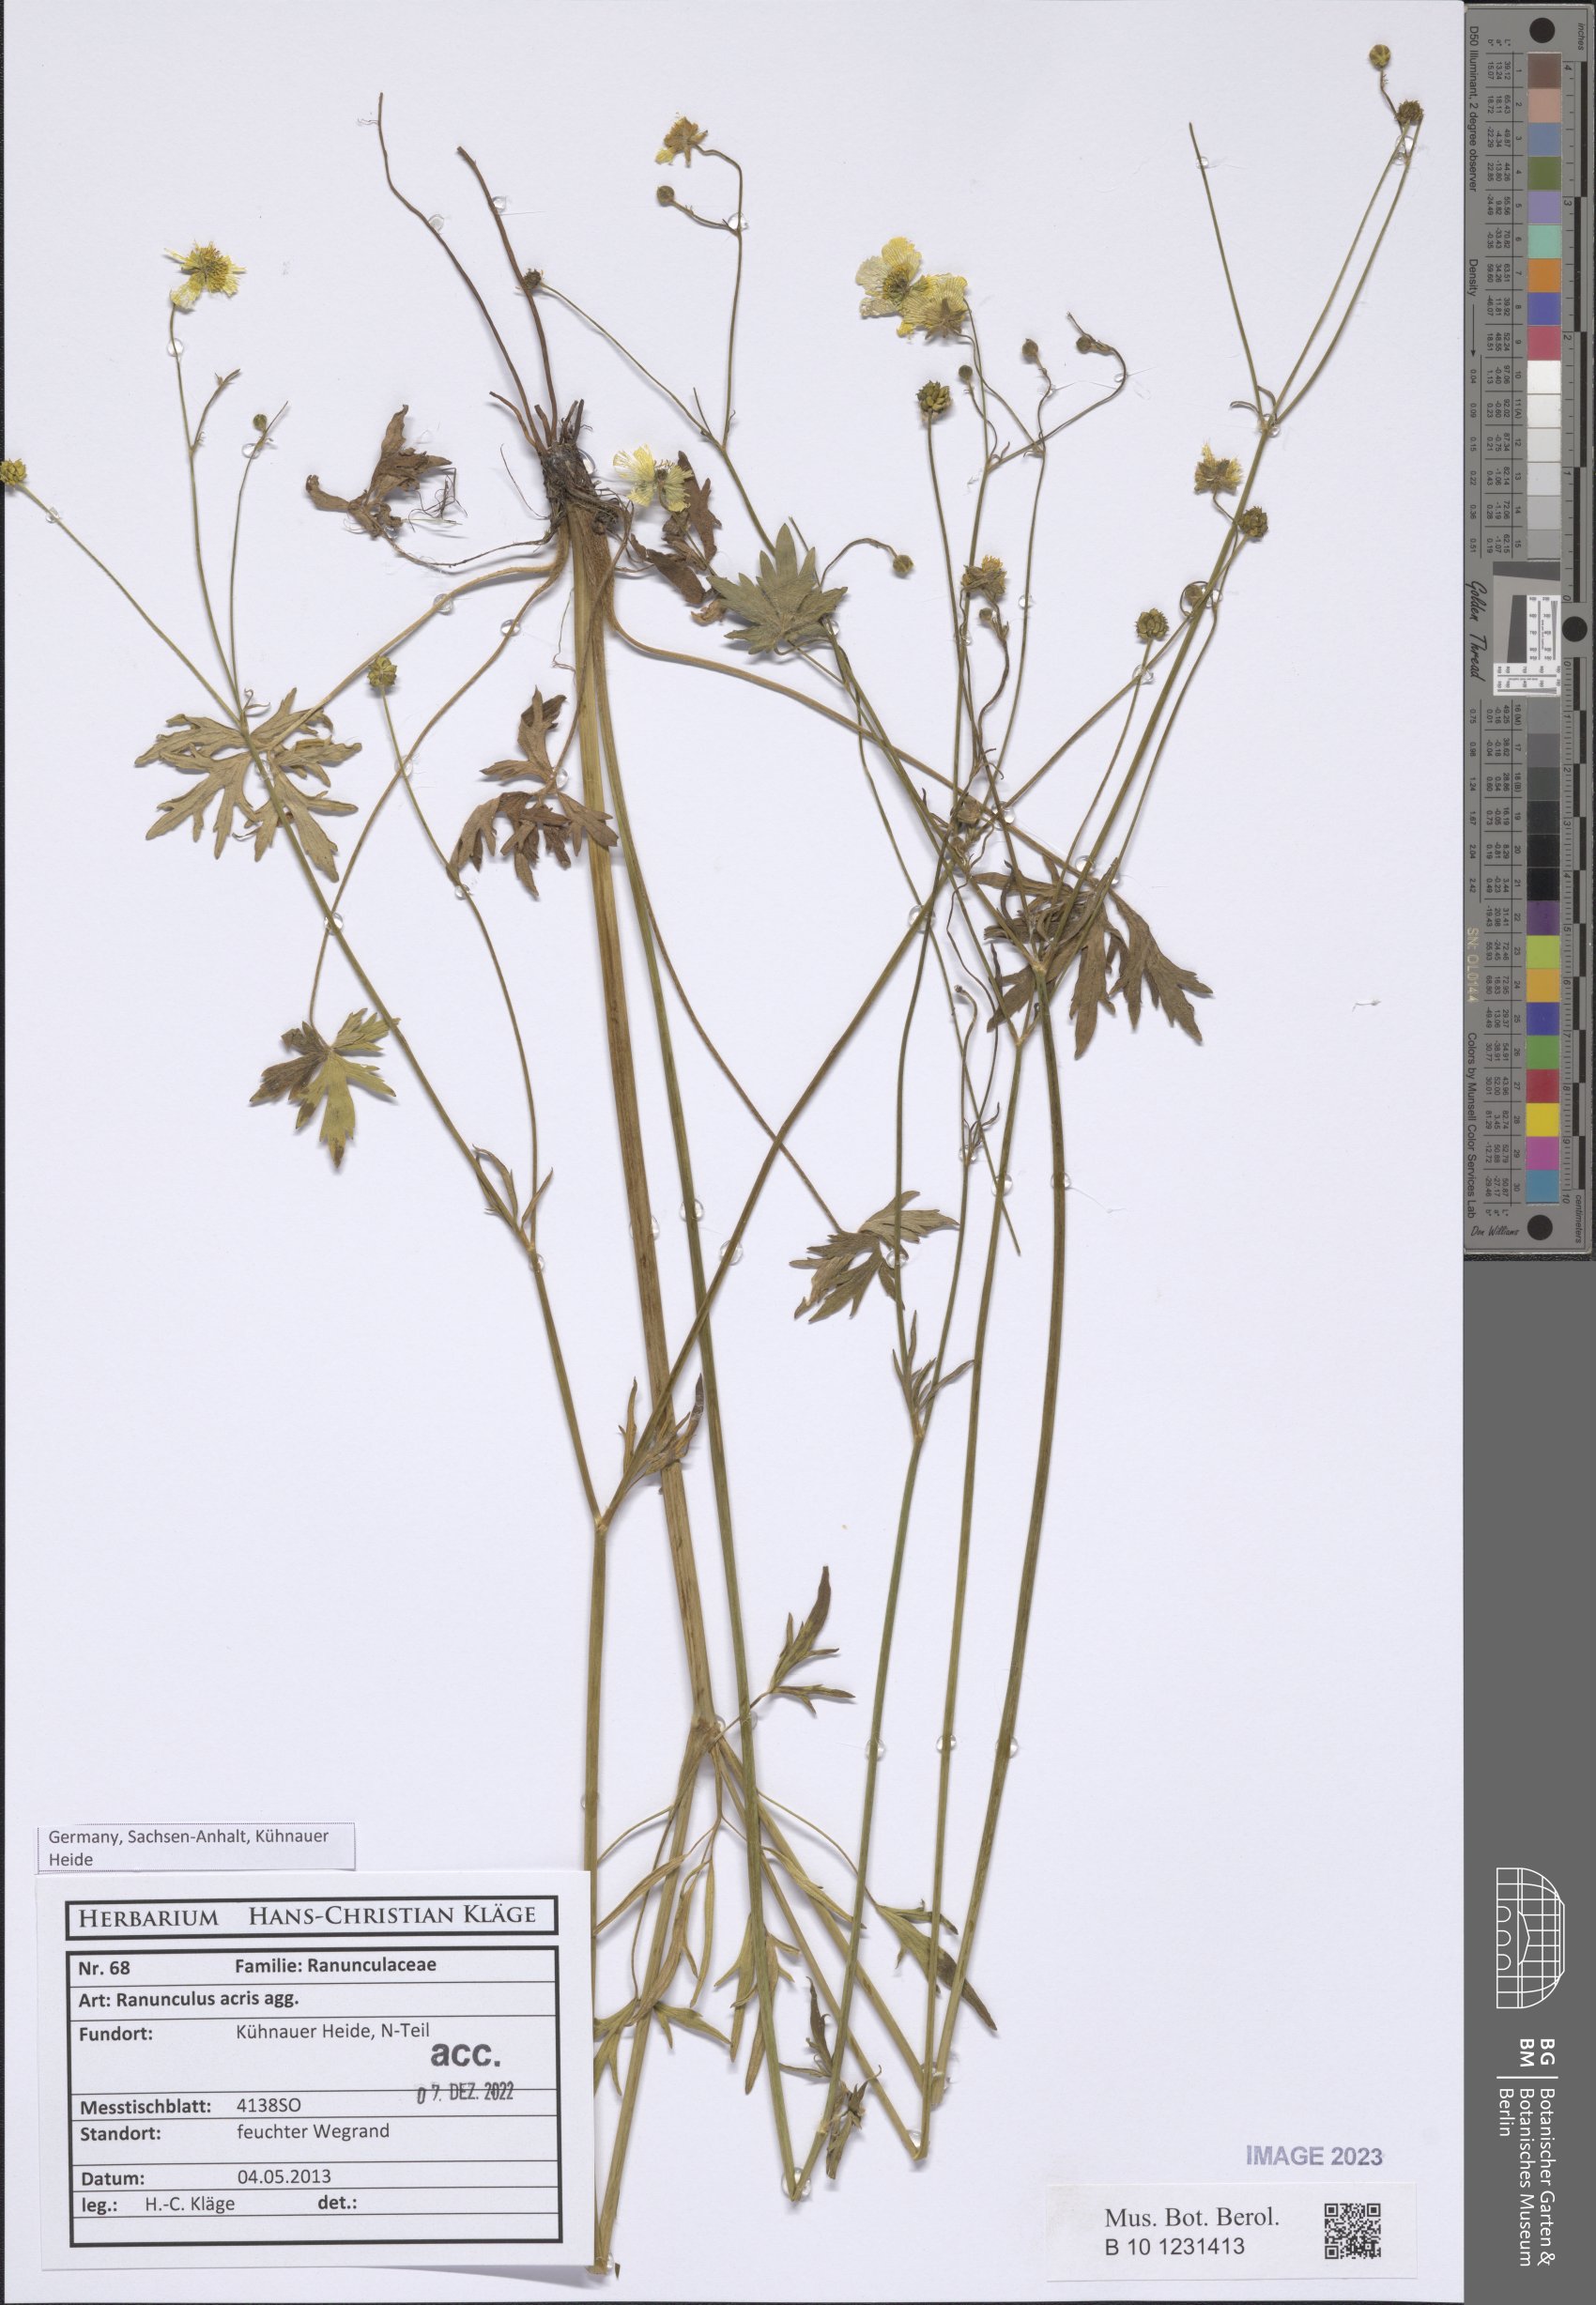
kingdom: Plantae
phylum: Tracheophyta
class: Magnoliopsida
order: Ranunculales
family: Ranunculaceae
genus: Ranunculus
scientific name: Ranunculus acris
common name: Meadow buttercup
